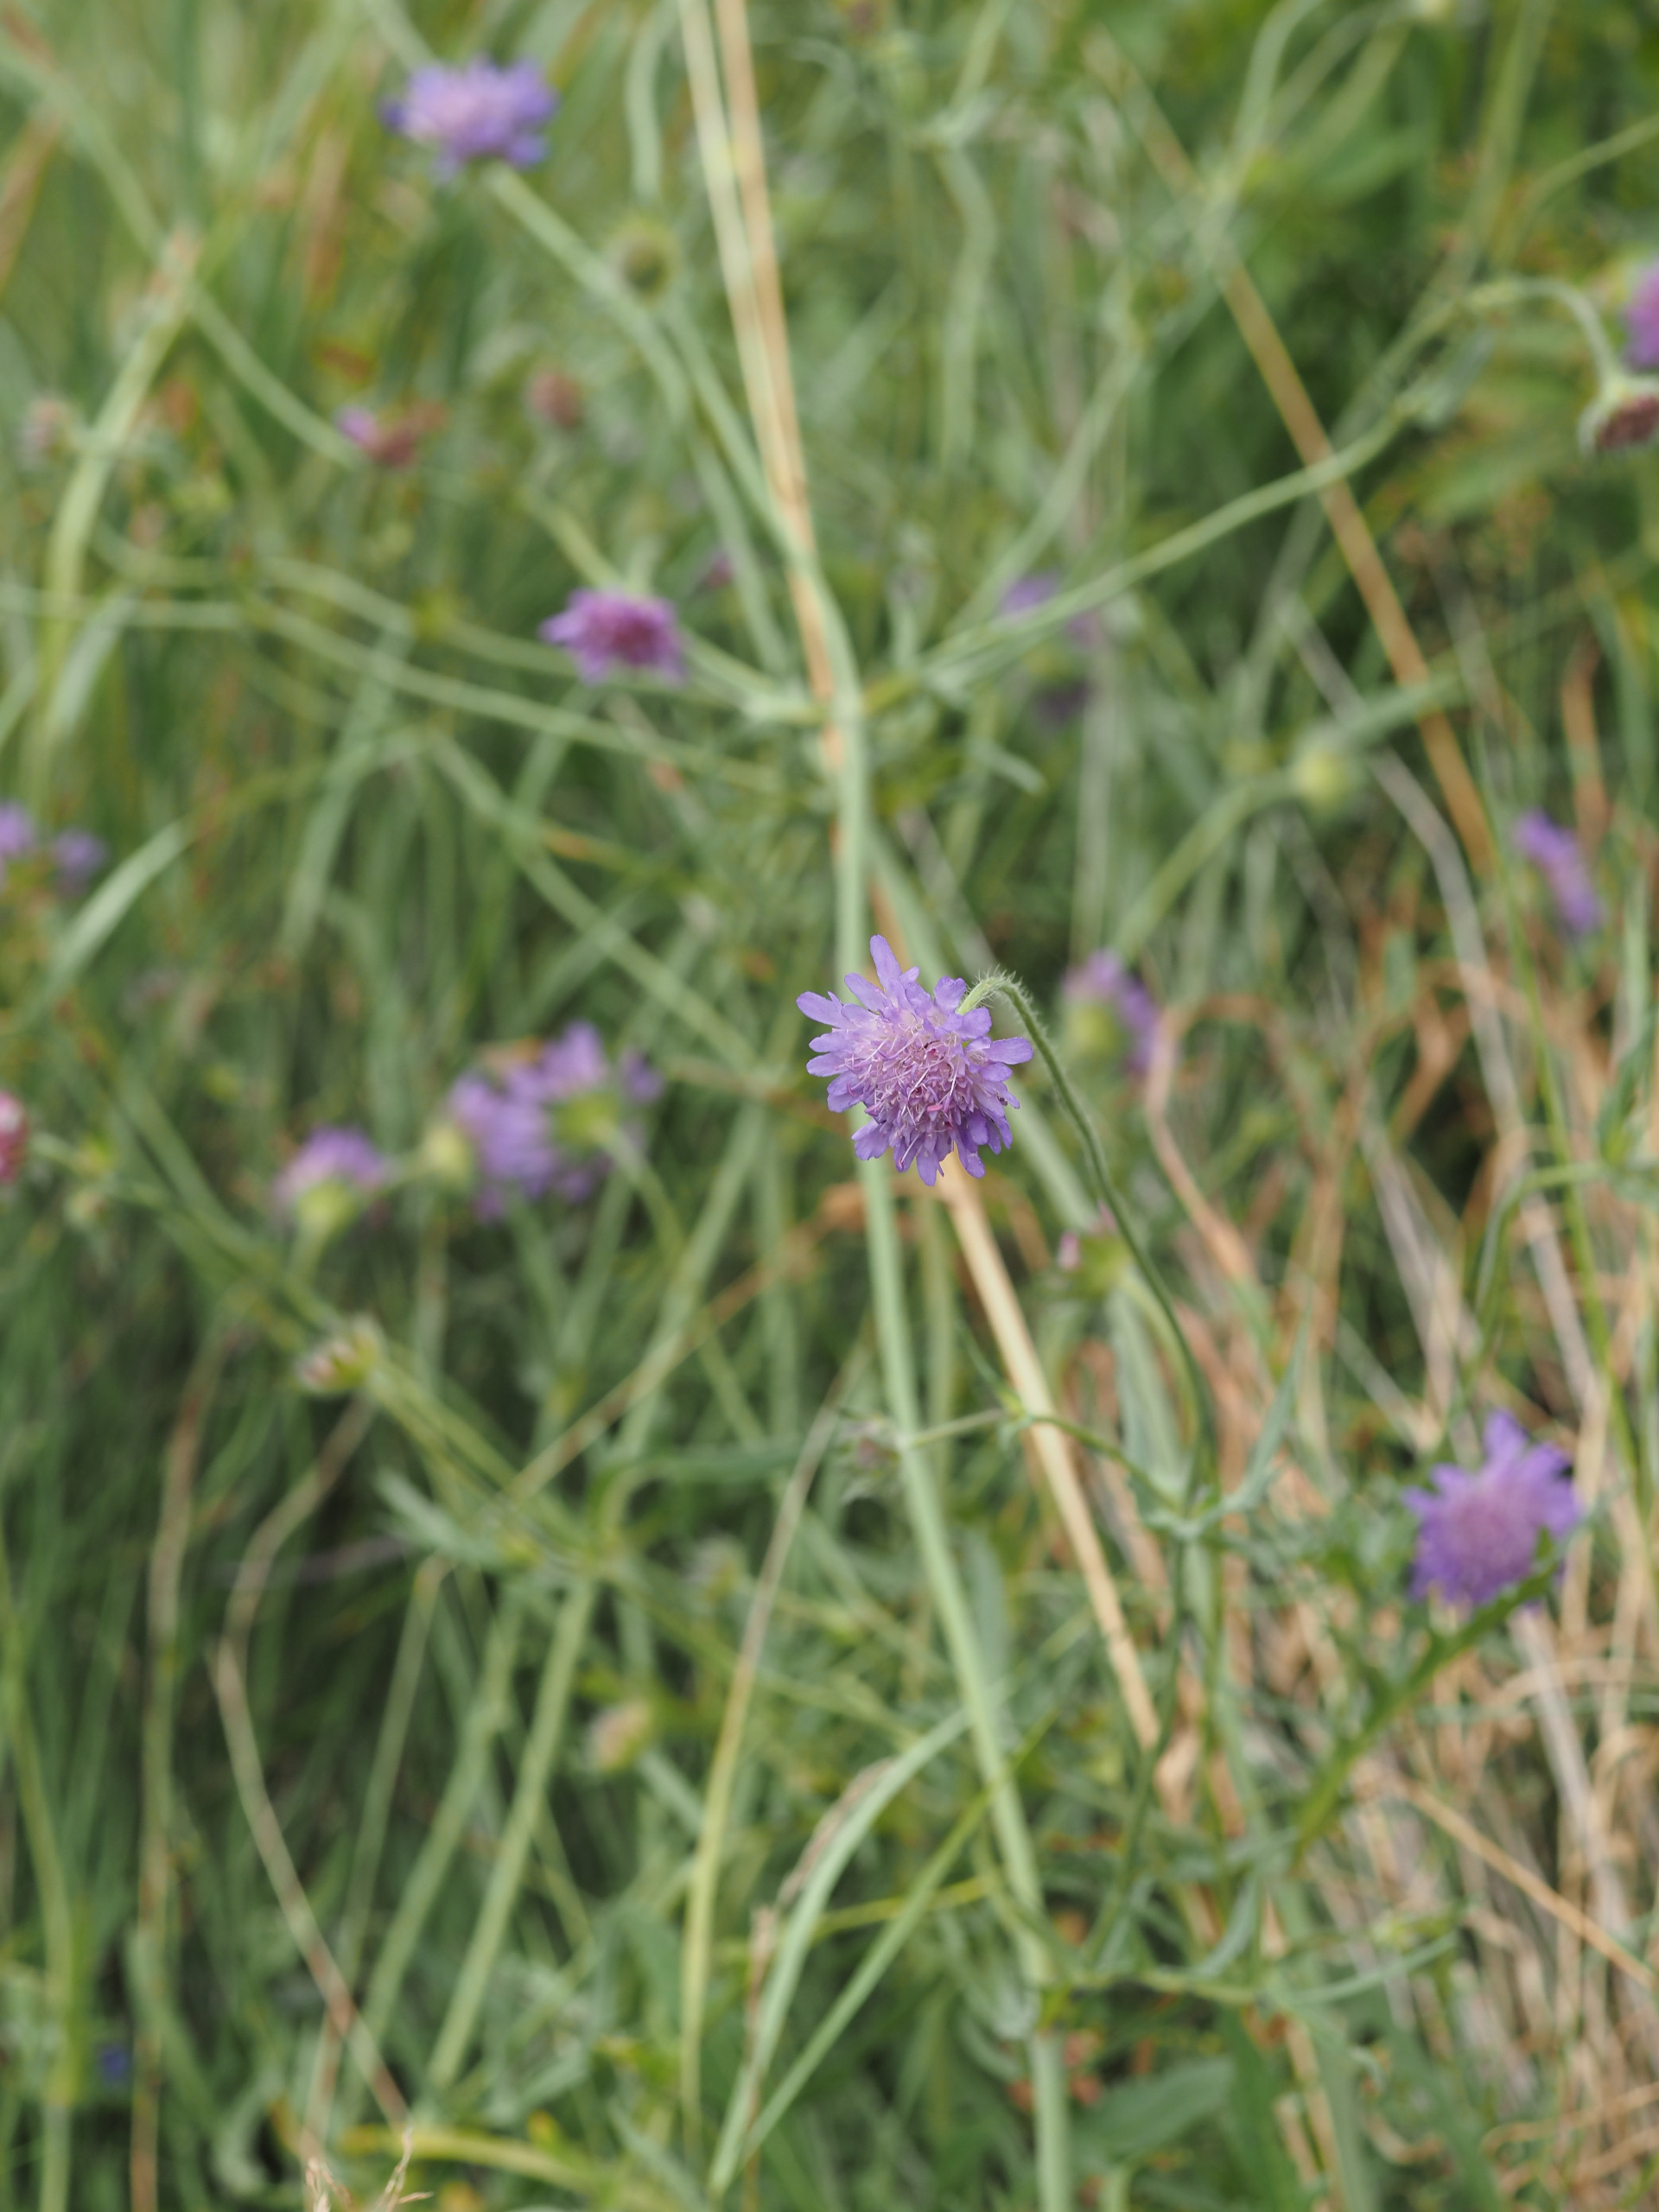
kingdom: Plantae
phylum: Tracheophyta
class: Magnoliopsida
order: Dipsacales
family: Caprifoliaceae
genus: Knautia
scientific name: Knautia arvensis
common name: Blåhat
